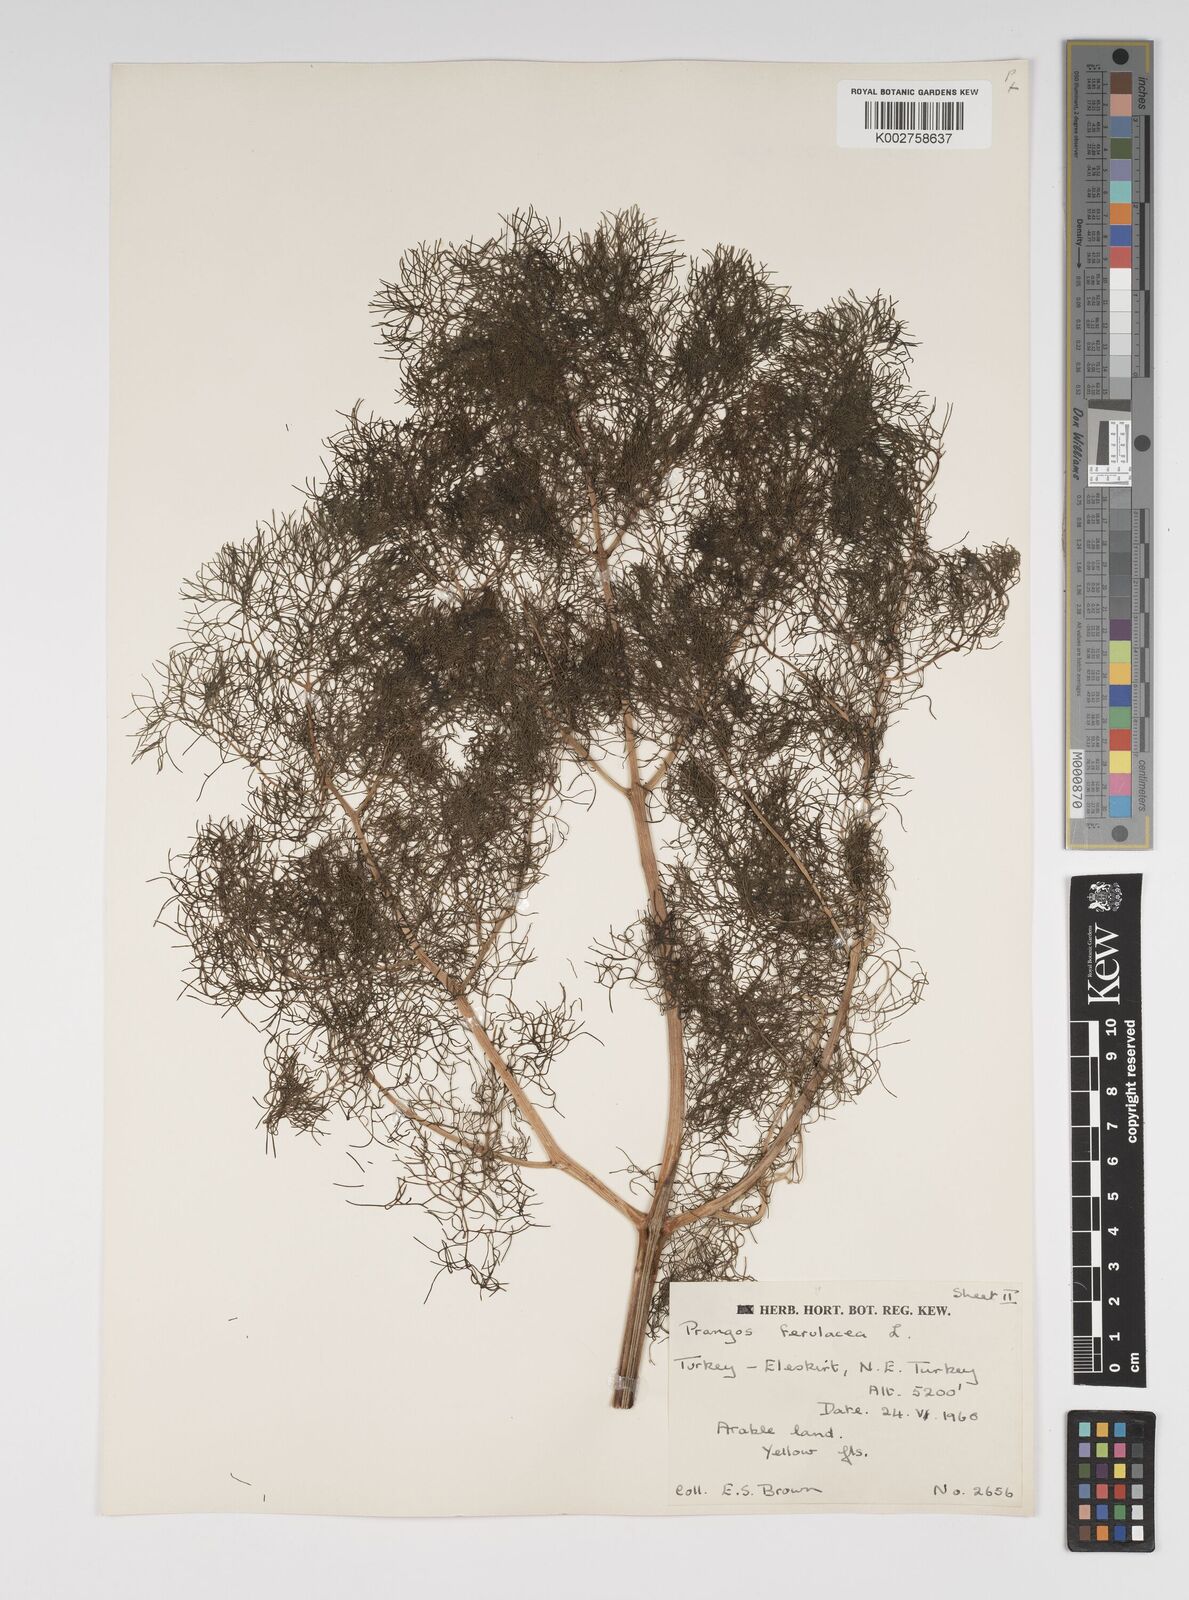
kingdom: Plantae
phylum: Tracheophyta
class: Magnoliopsida
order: Apiales
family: Apiaceae
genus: Prangos
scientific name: Prangos ferulacea
